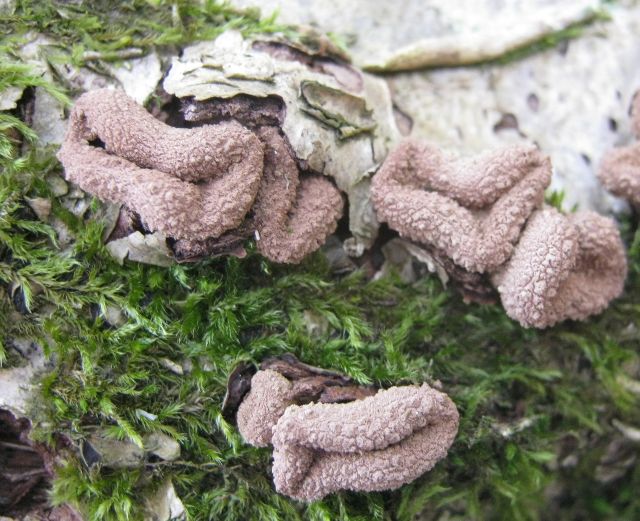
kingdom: Fungi
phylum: Ascomycota
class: Leotiomycetes
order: Helotiales
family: Cenangiaceae
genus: Encoelia
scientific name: Encoelia furfuracea
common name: hassel-læderskive
